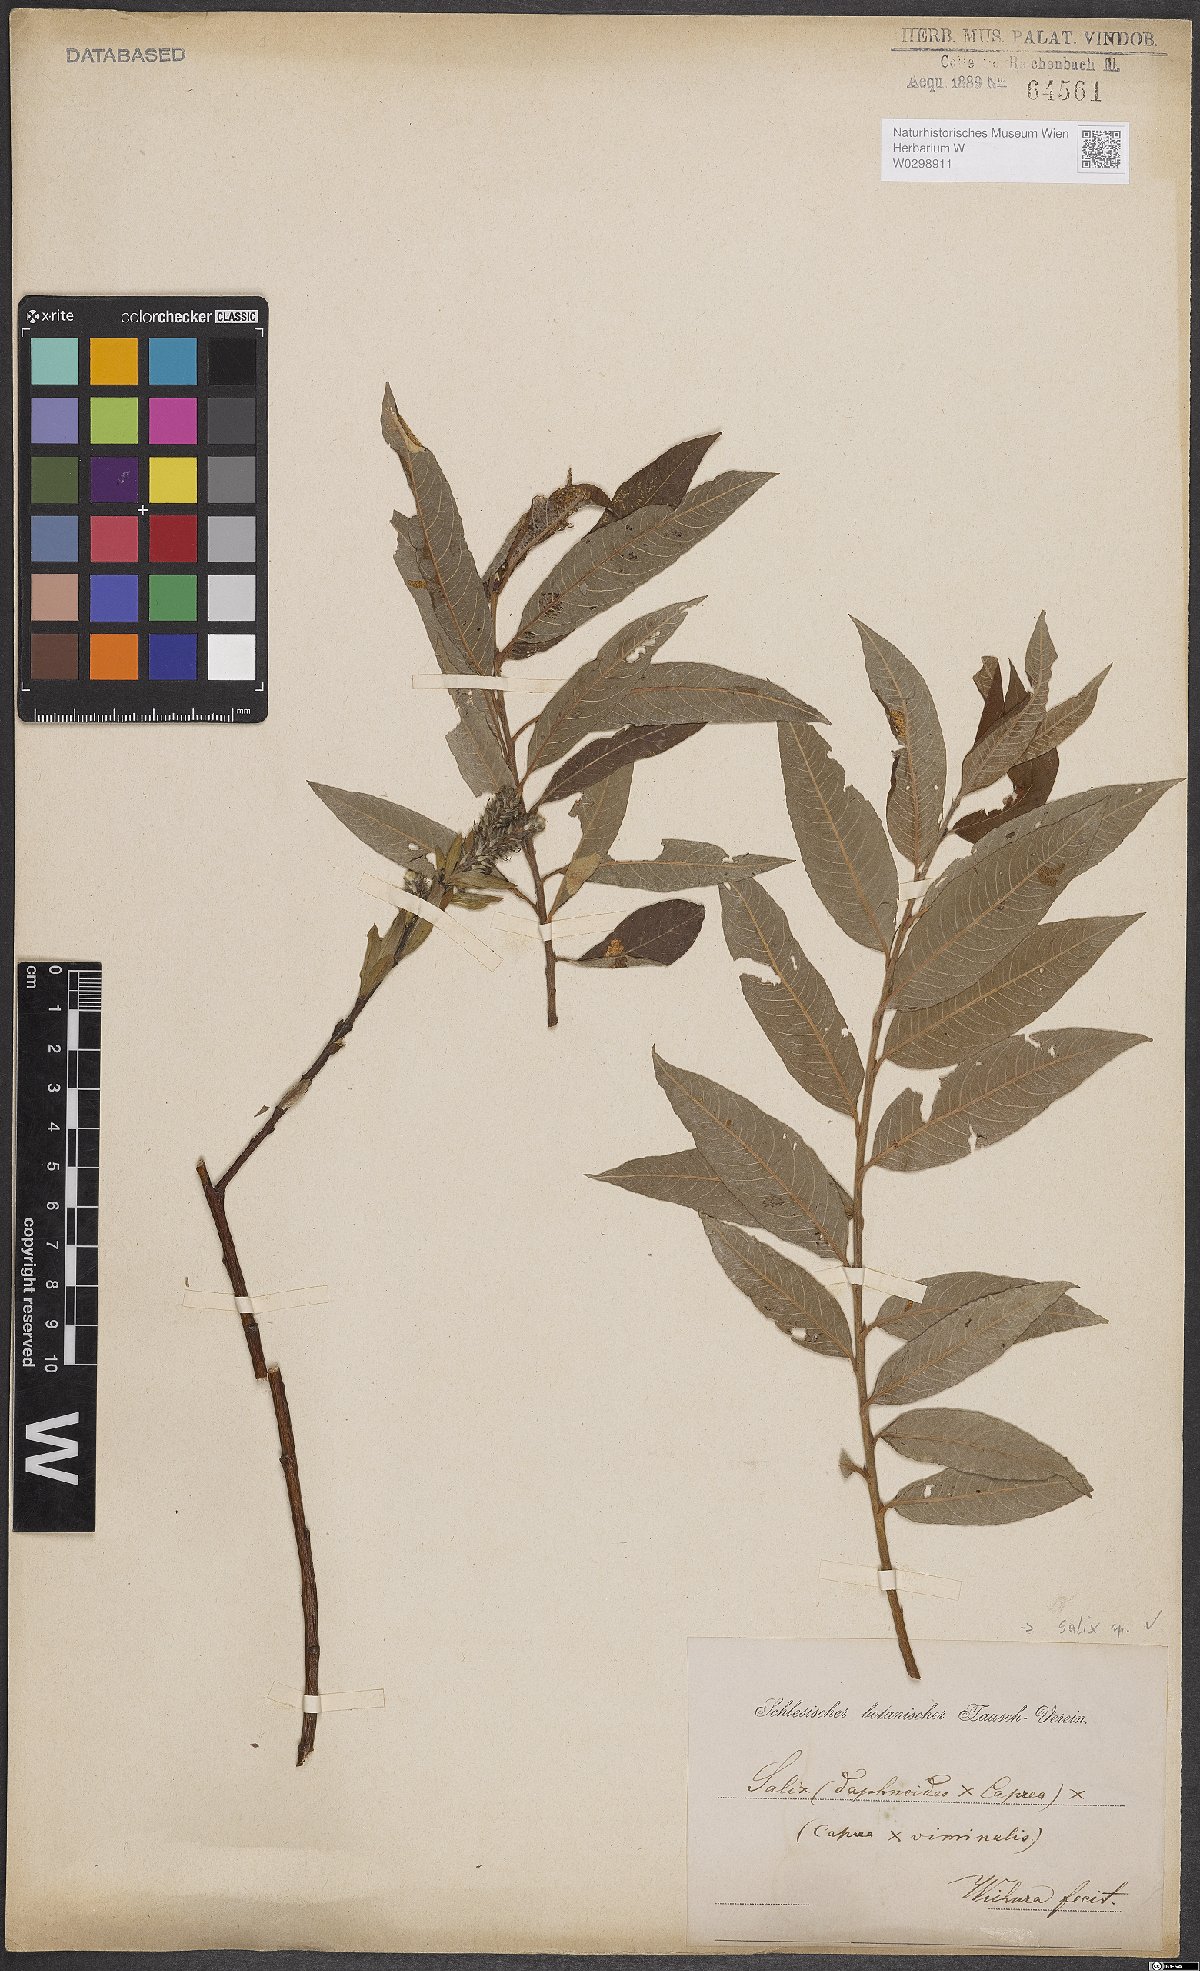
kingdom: Plantae
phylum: Tracheophyta
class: Magnoliopsida
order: Malpighiales
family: Salicaceae
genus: Salix
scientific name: Salix
